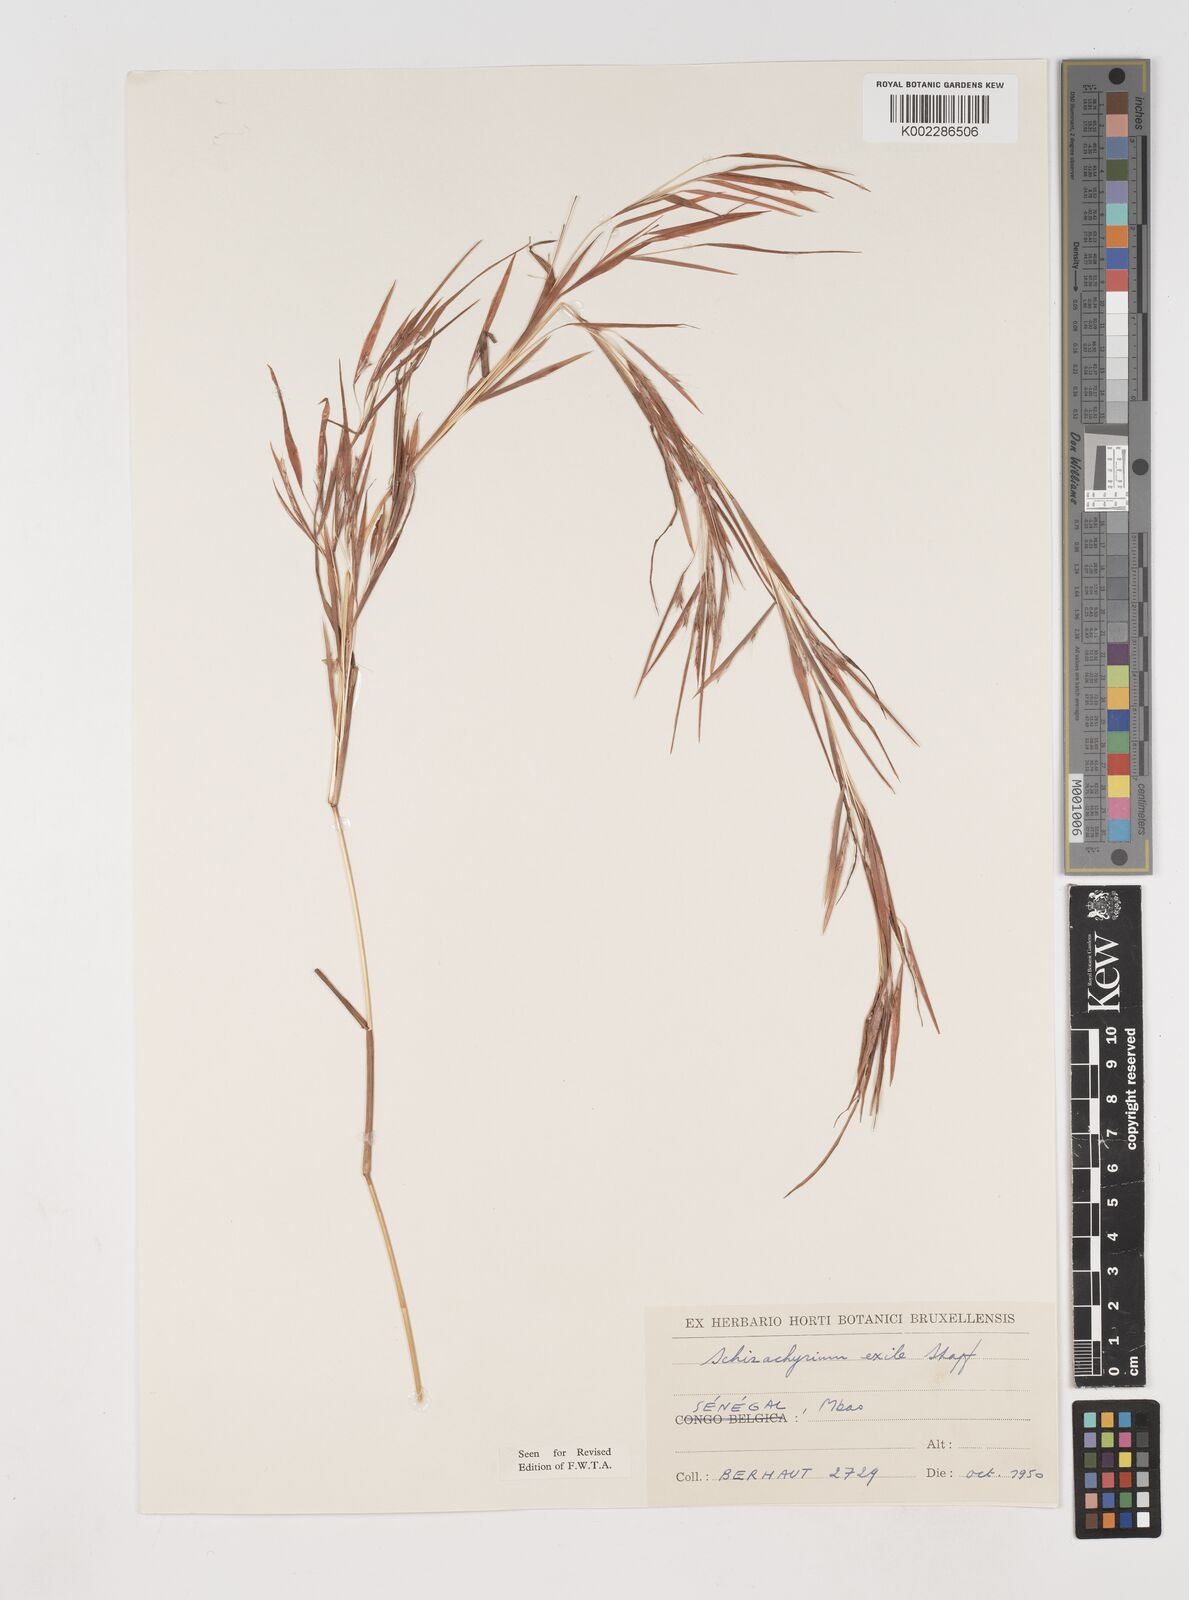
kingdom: Plantae
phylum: Tracheophyta
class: Liliopsida
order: Poales
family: Poaceae
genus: Schizachyrium
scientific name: Schizachyrium exile
